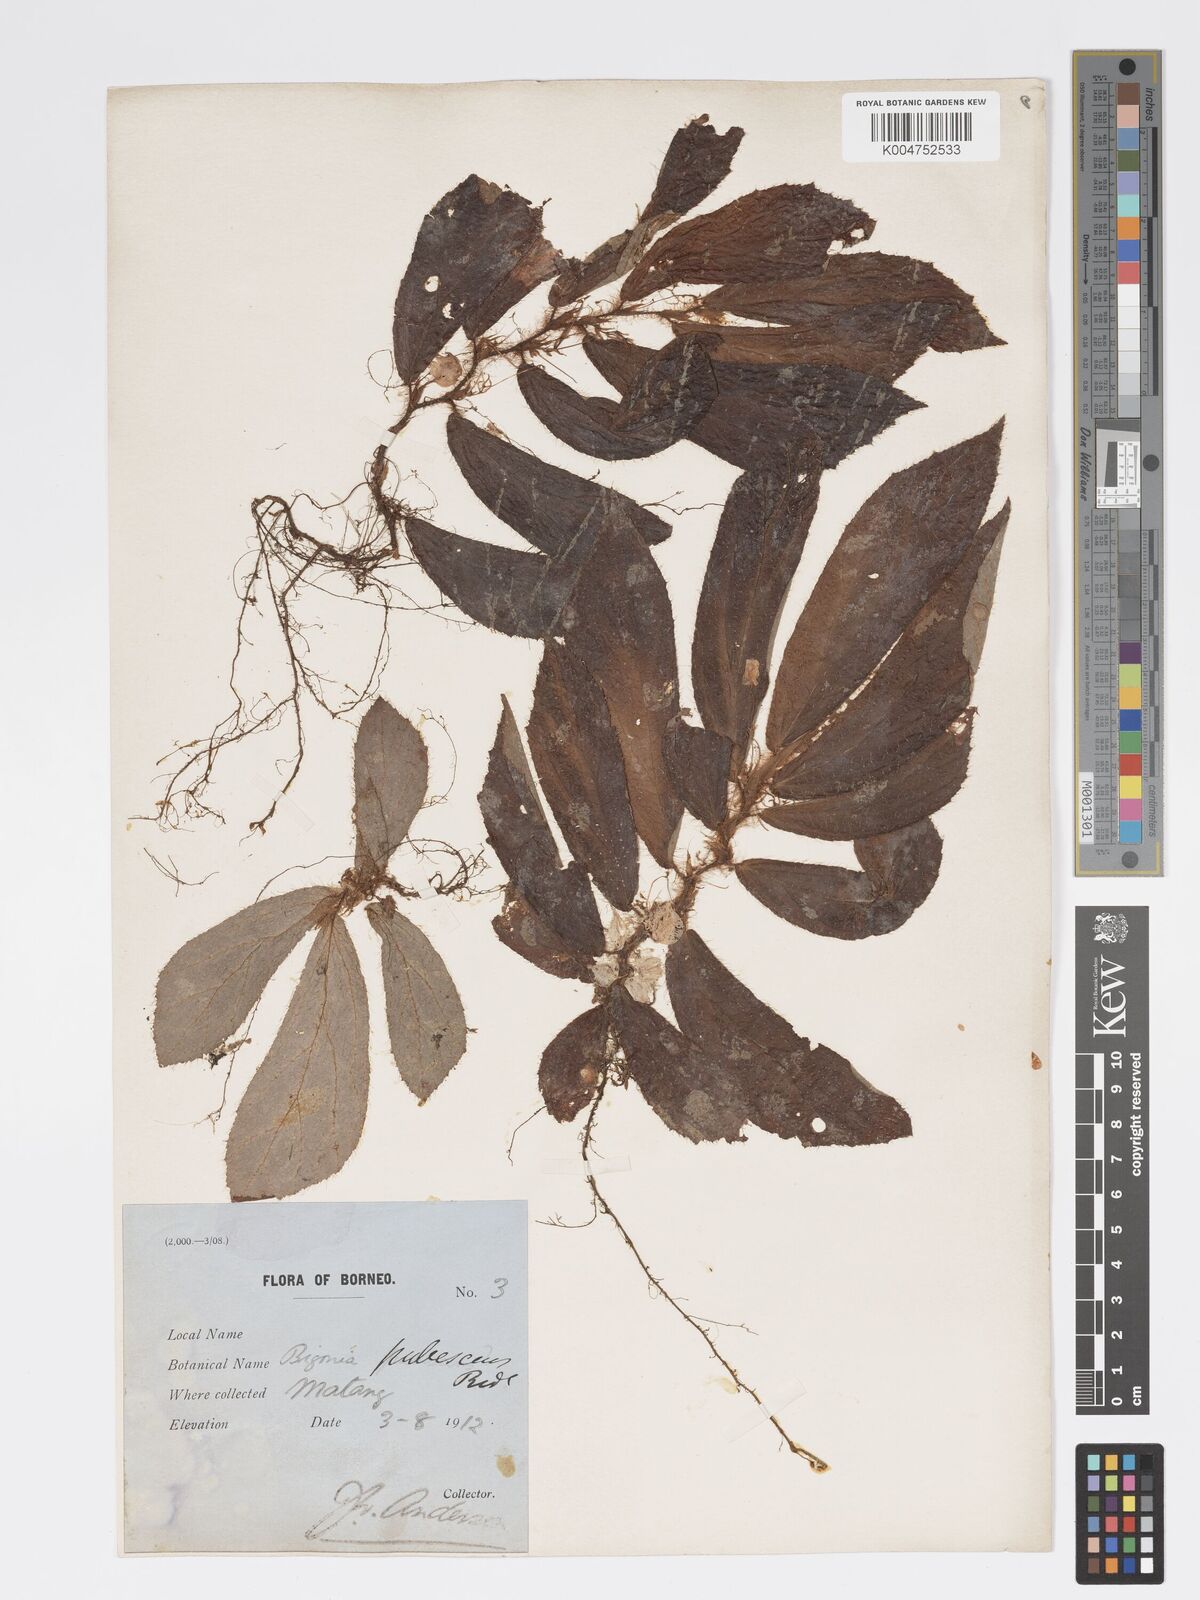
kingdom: Plantae
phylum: Tracheophyta
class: Magnoliopsida
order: Cucurbitales
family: Begoniaceae
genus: Begonia
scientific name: Begonia pubescens
